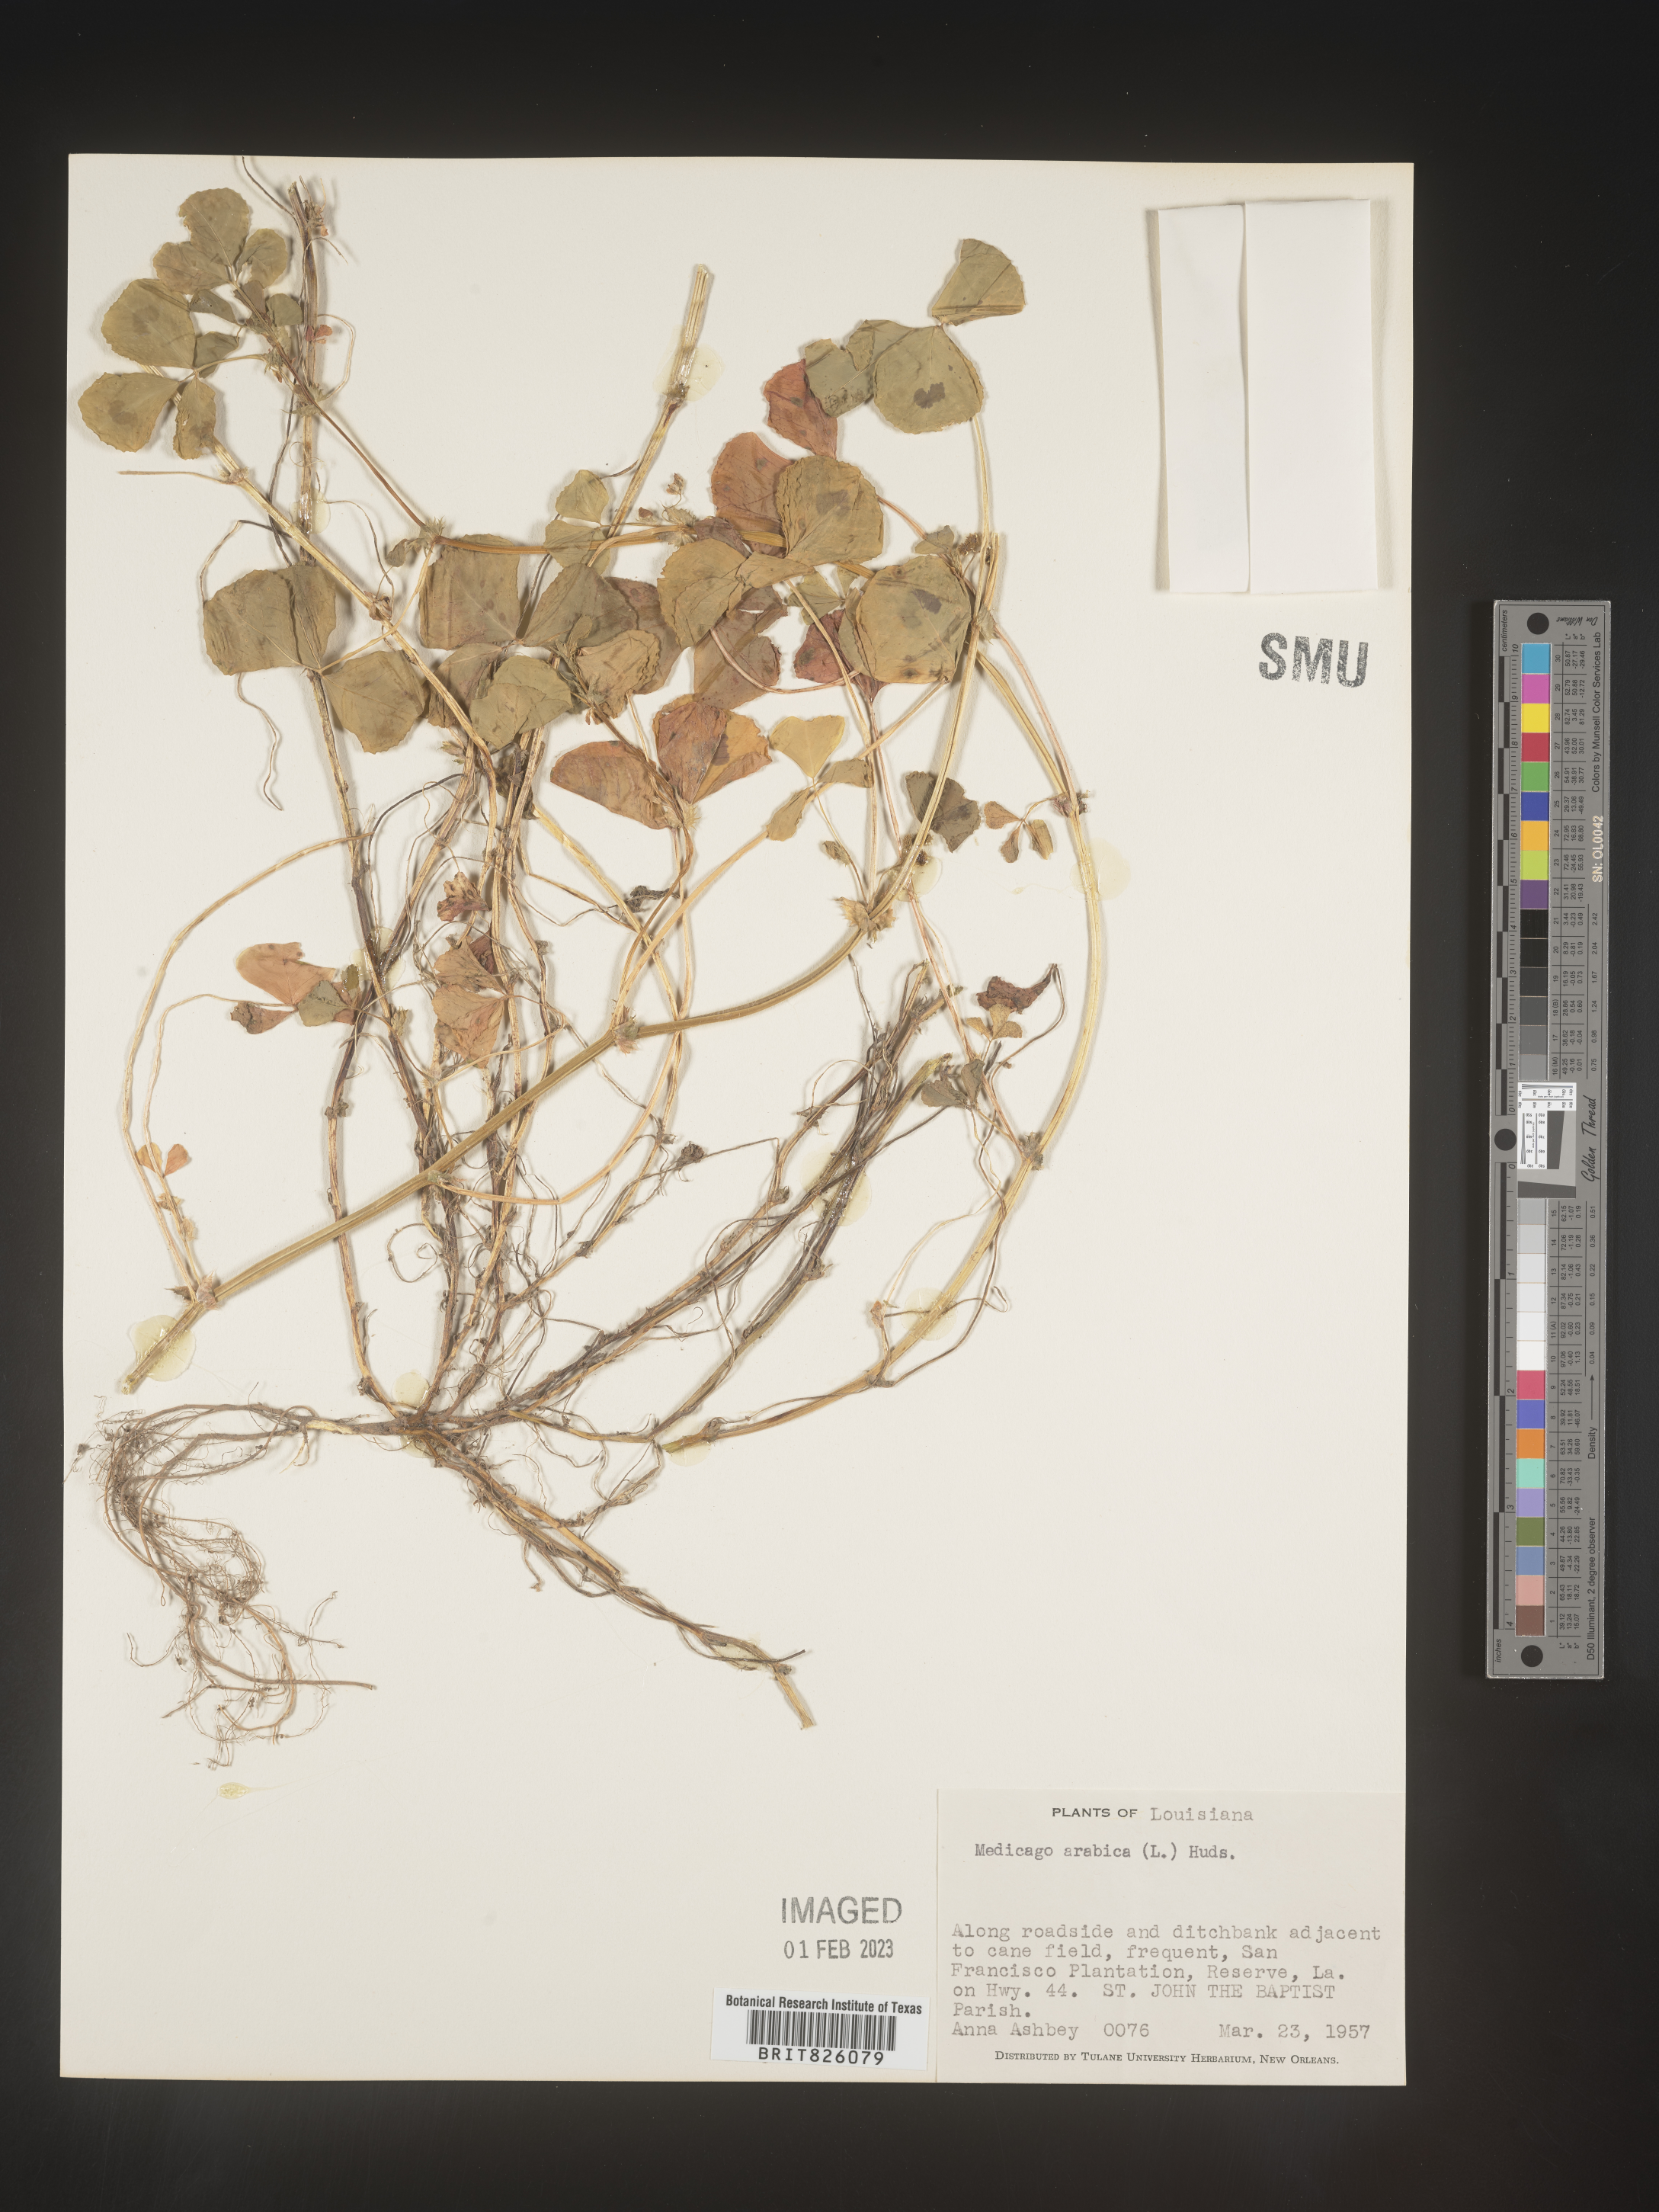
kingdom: Plantae
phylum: Tracheophyta
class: Magnoliopsida
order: Fabales
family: Fabaceae
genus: Medicago
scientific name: Medicago arabica
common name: Spotted medick
